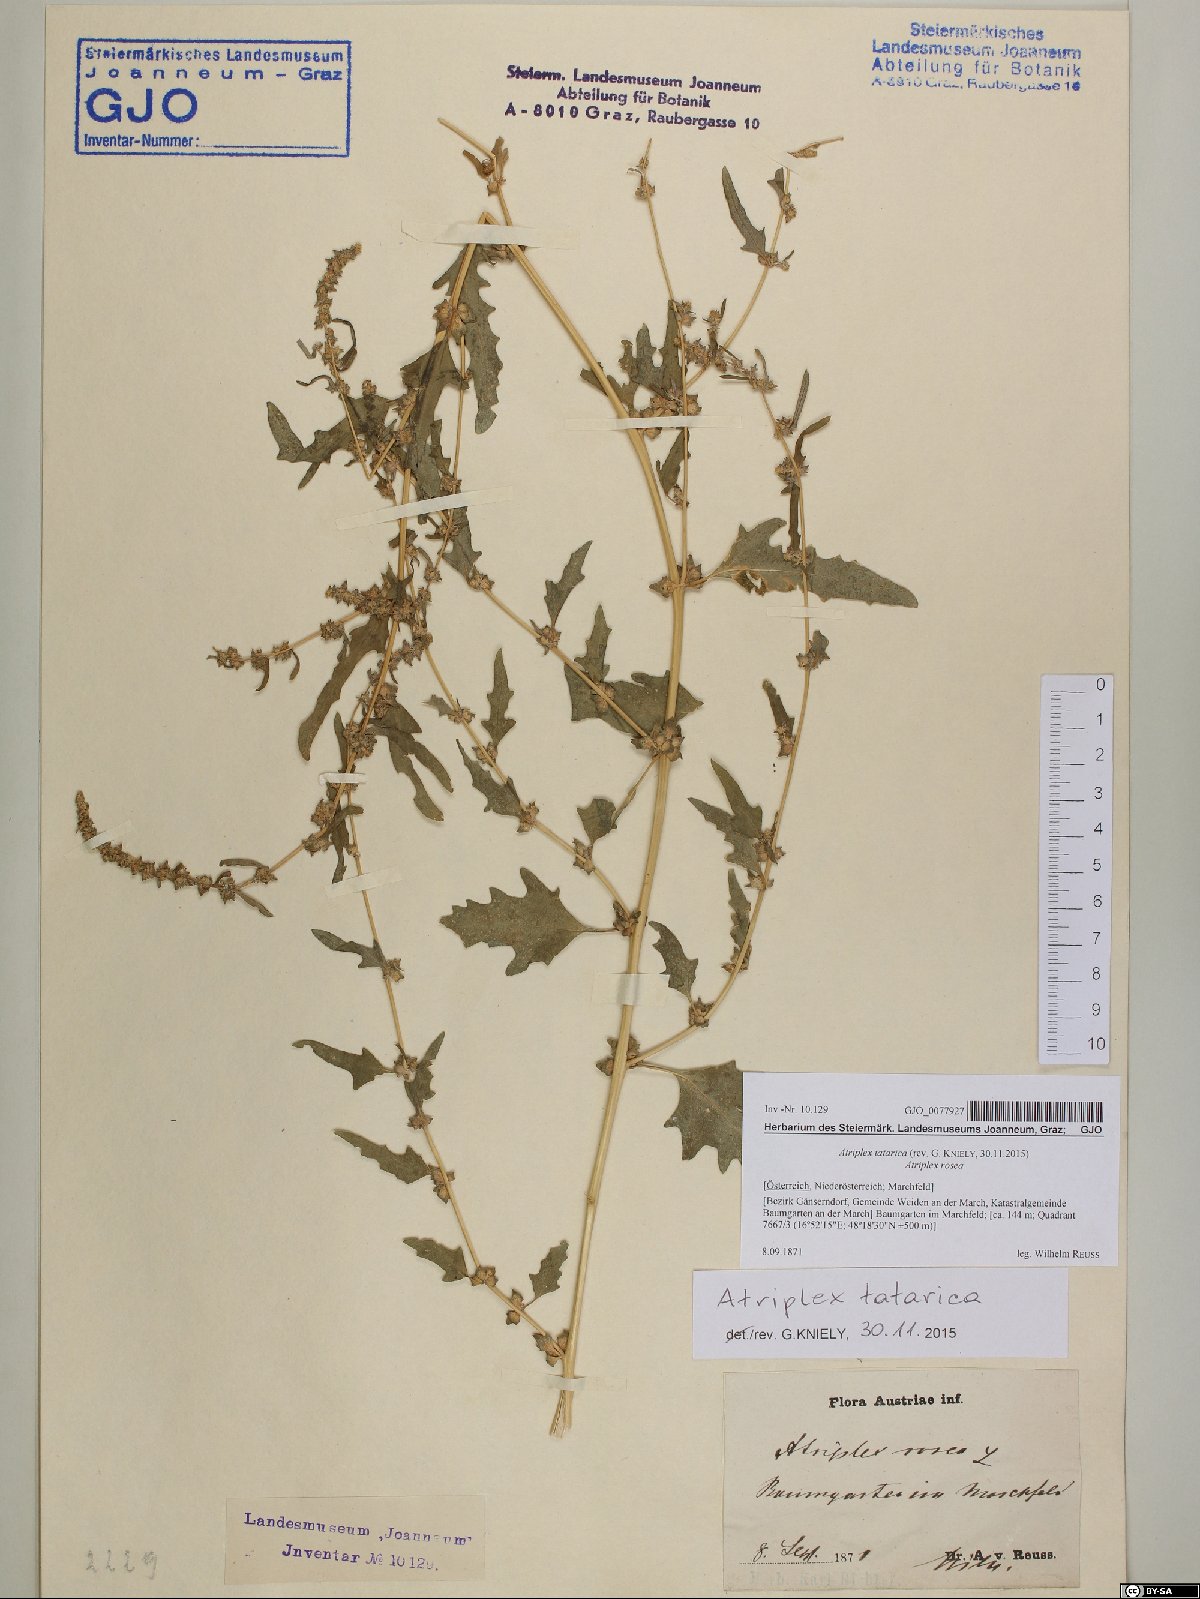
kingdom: Plantae
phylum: Tracheophyta
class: Magnoliopsida
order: Caryophyllales
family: Amaranthaceae
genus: Atriplex
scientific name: Atriplex tatarica
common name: Tatarian orache
